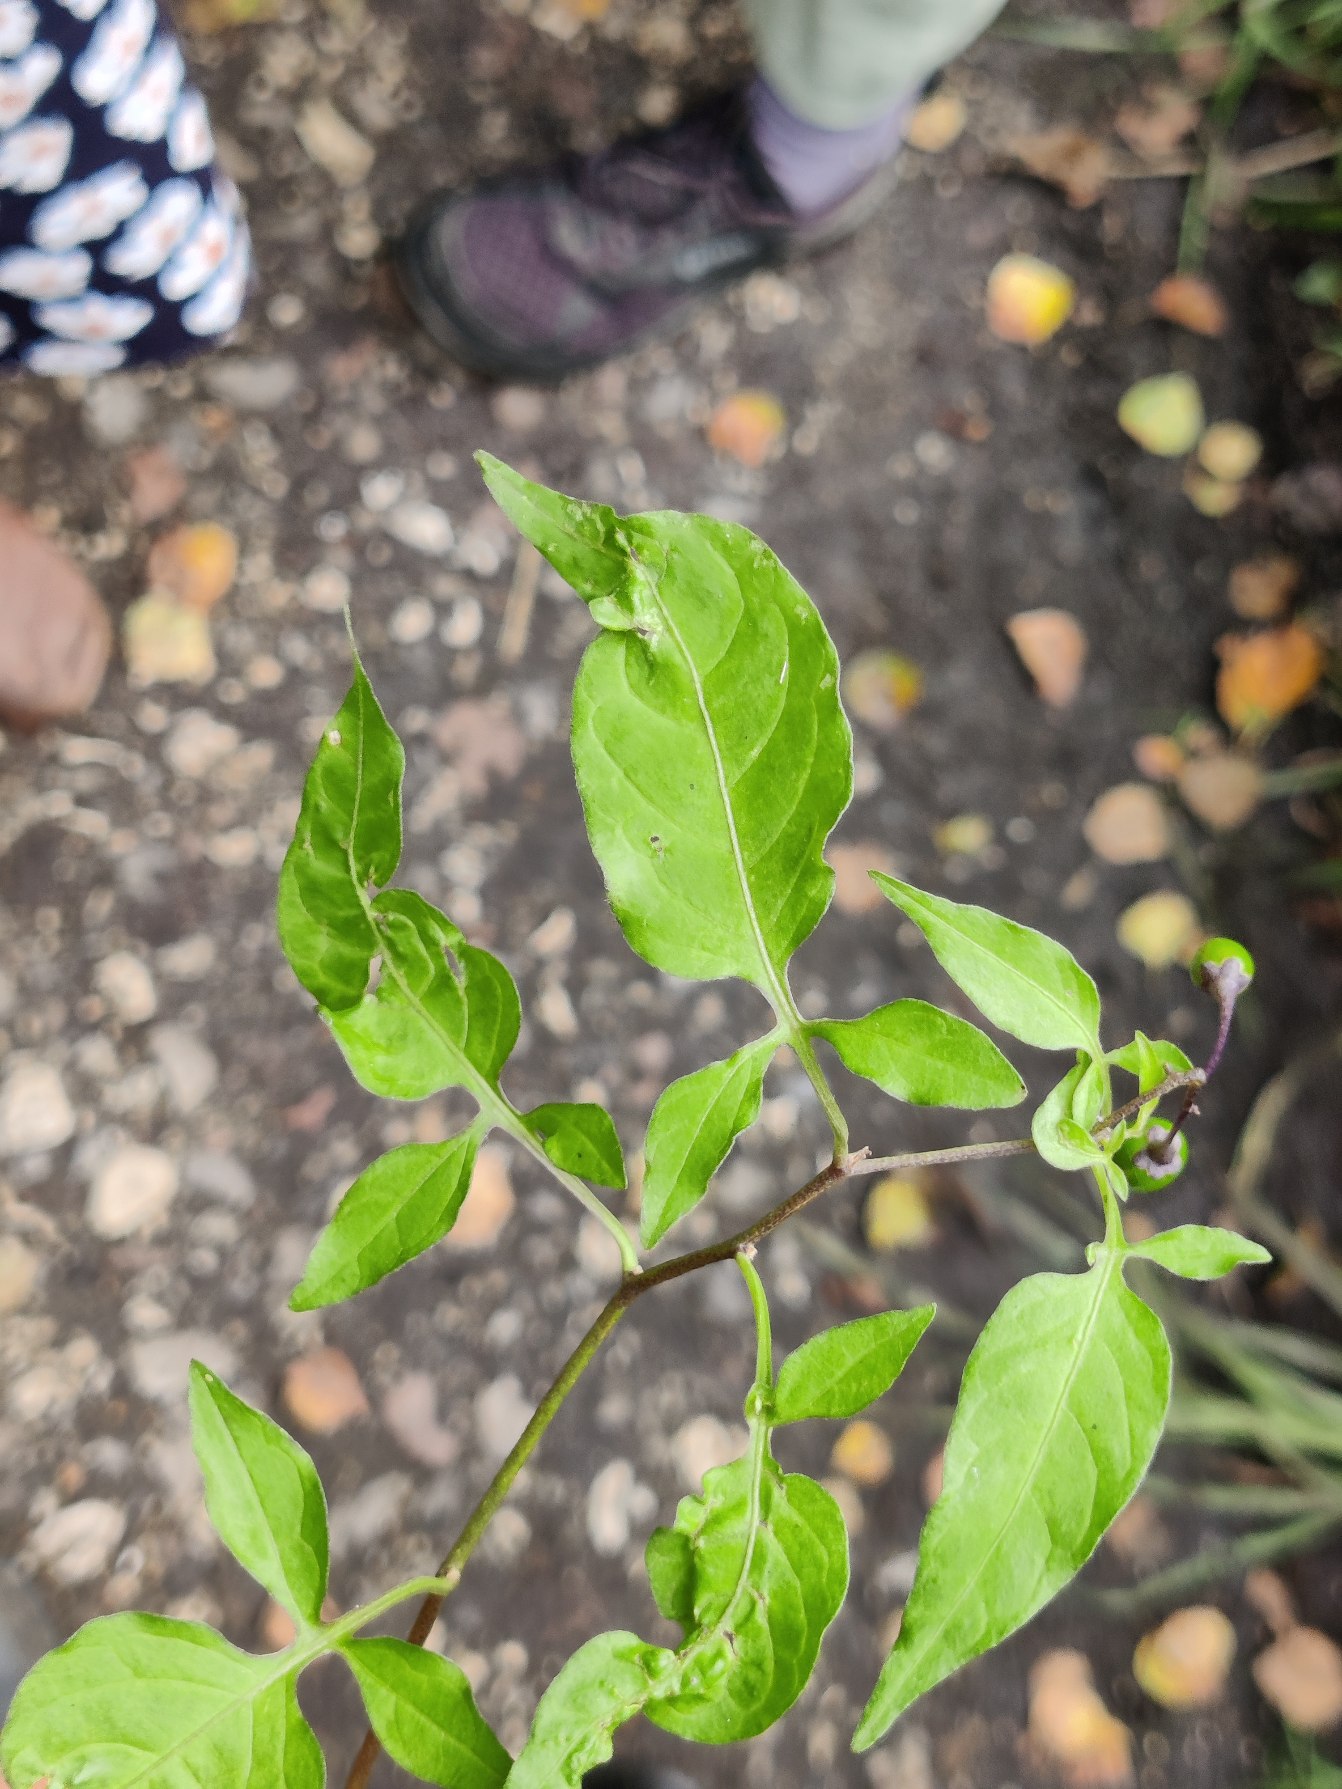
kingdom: Plantae
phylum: Tracheophyta
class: Magnoliopsida
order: Solanales
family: Solanaceae
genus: Solanum
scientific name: Solanum dulcamara
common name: Bittersød natskygge
